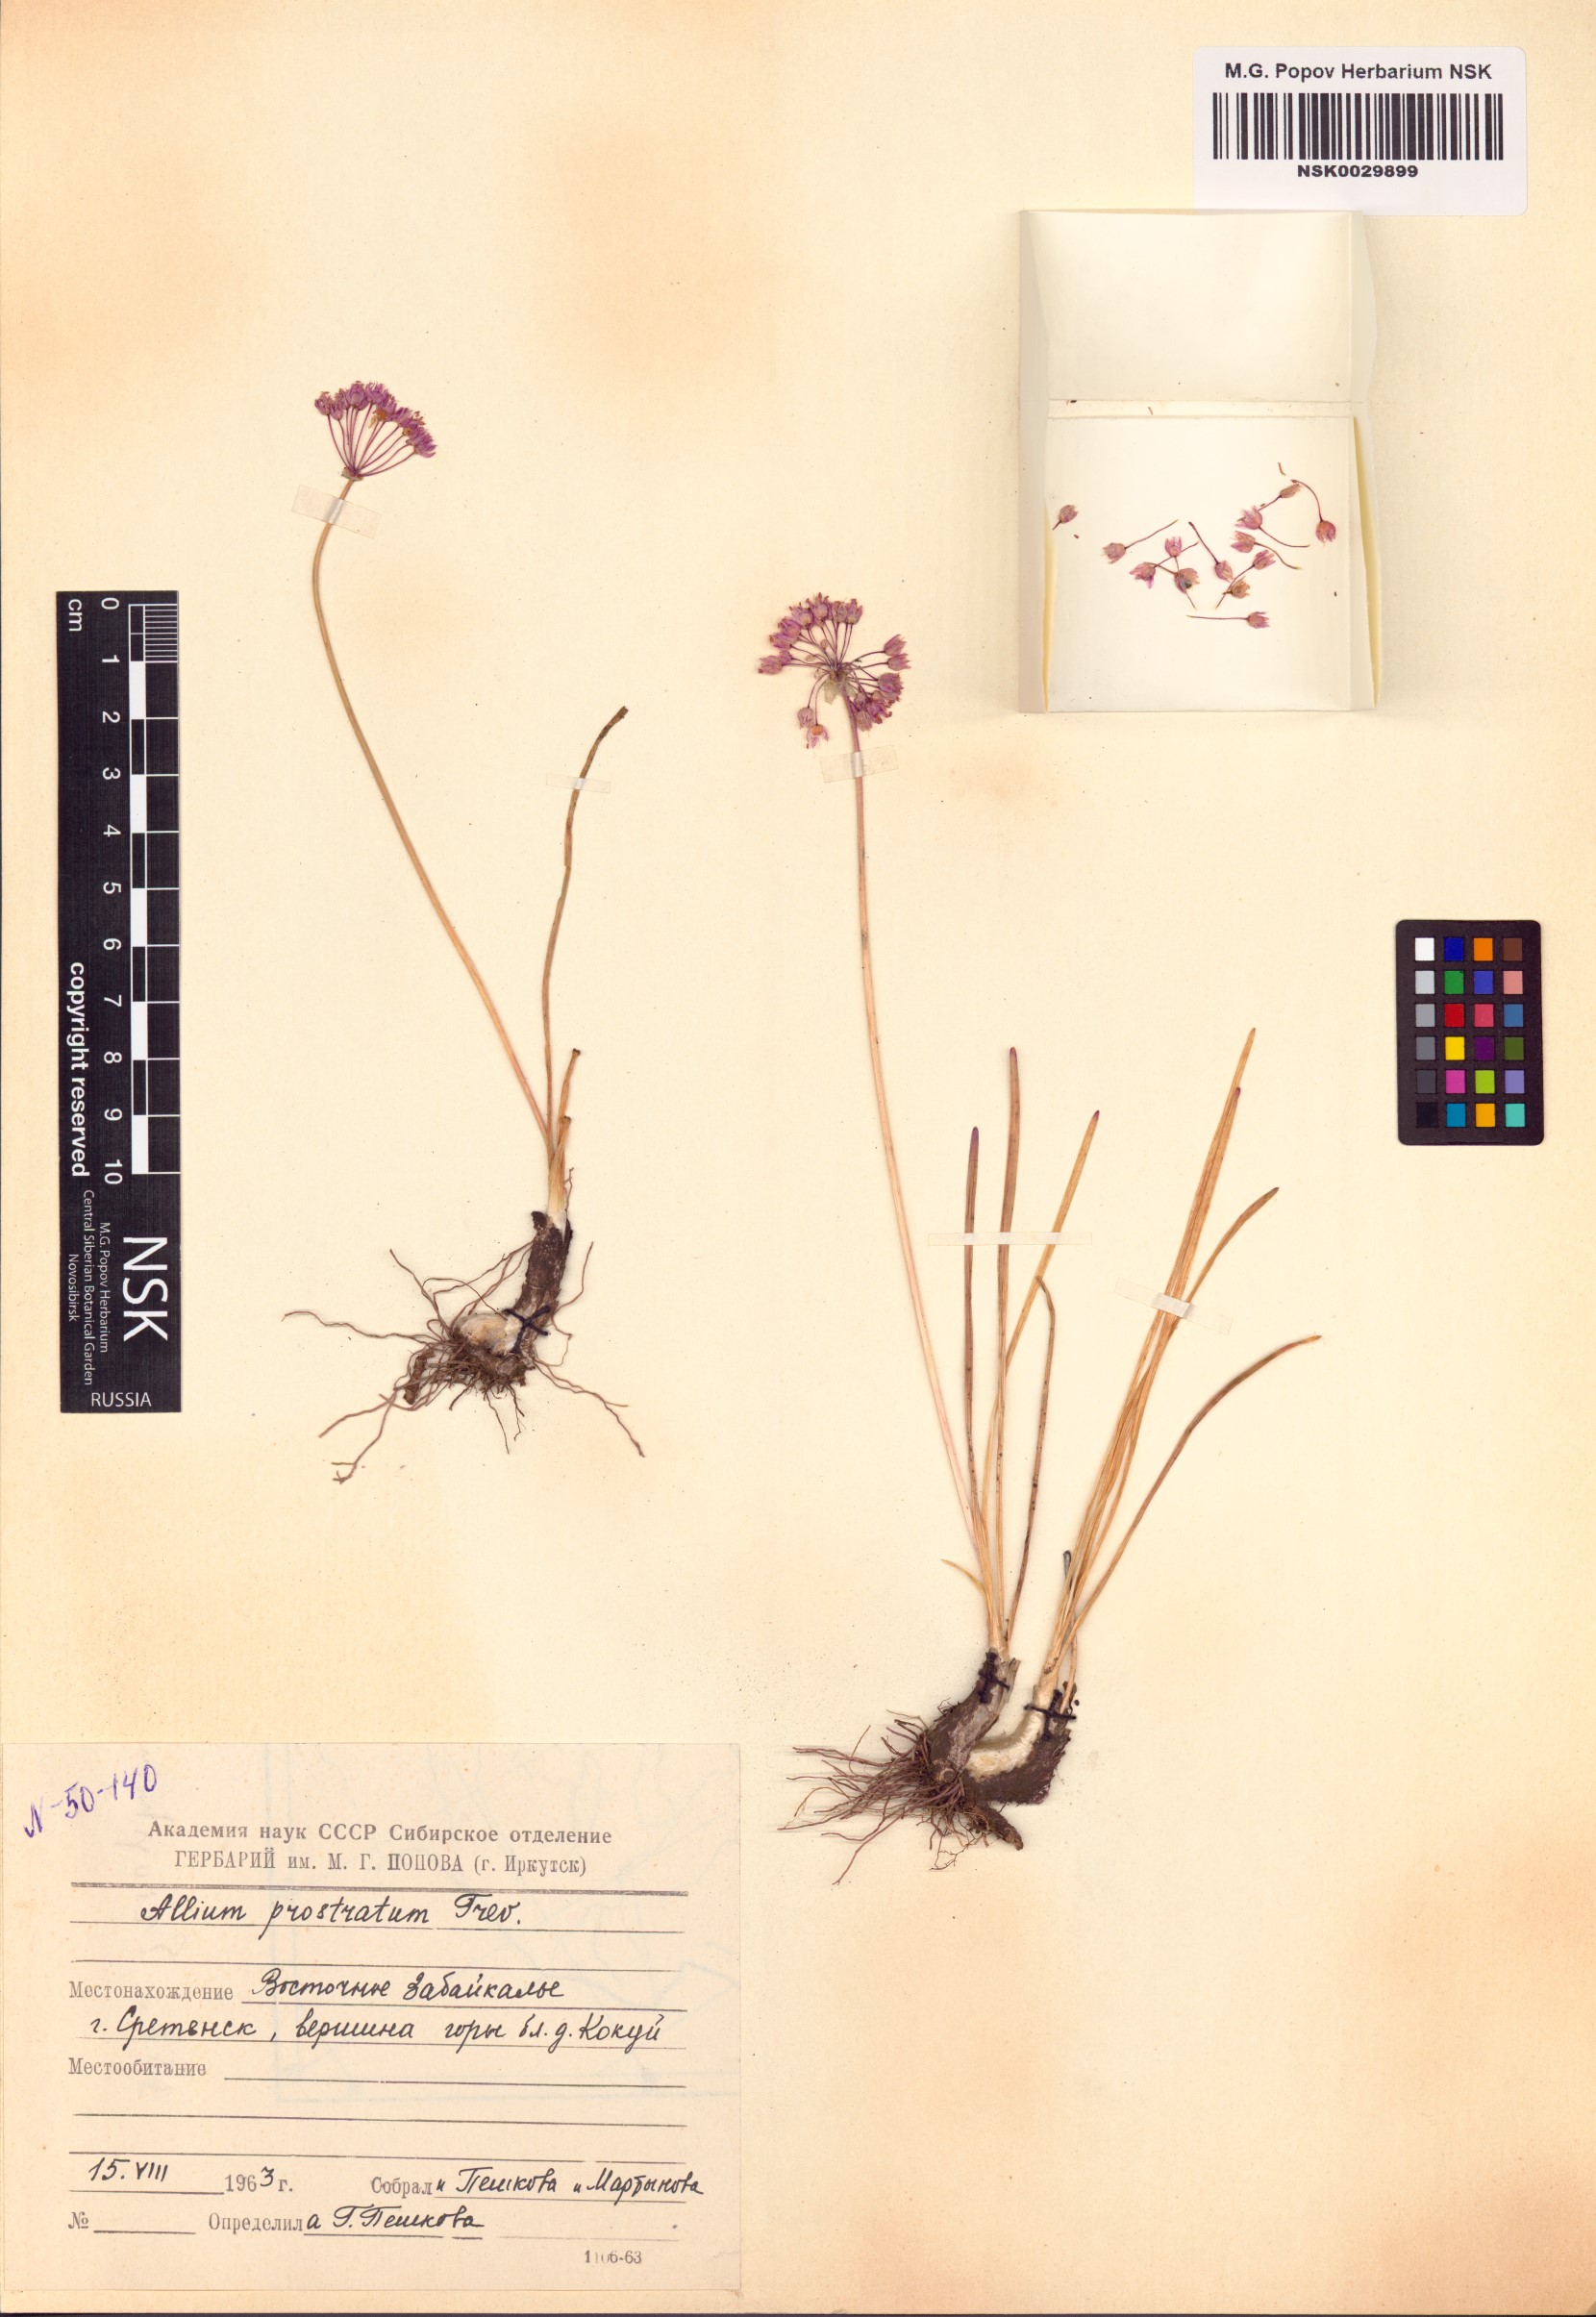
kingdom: Plantae
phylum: Tracheophyta
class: Liliopsida
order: Asparagales
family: Amaryllidaceae
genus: Allium
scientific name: Allium prostratum
